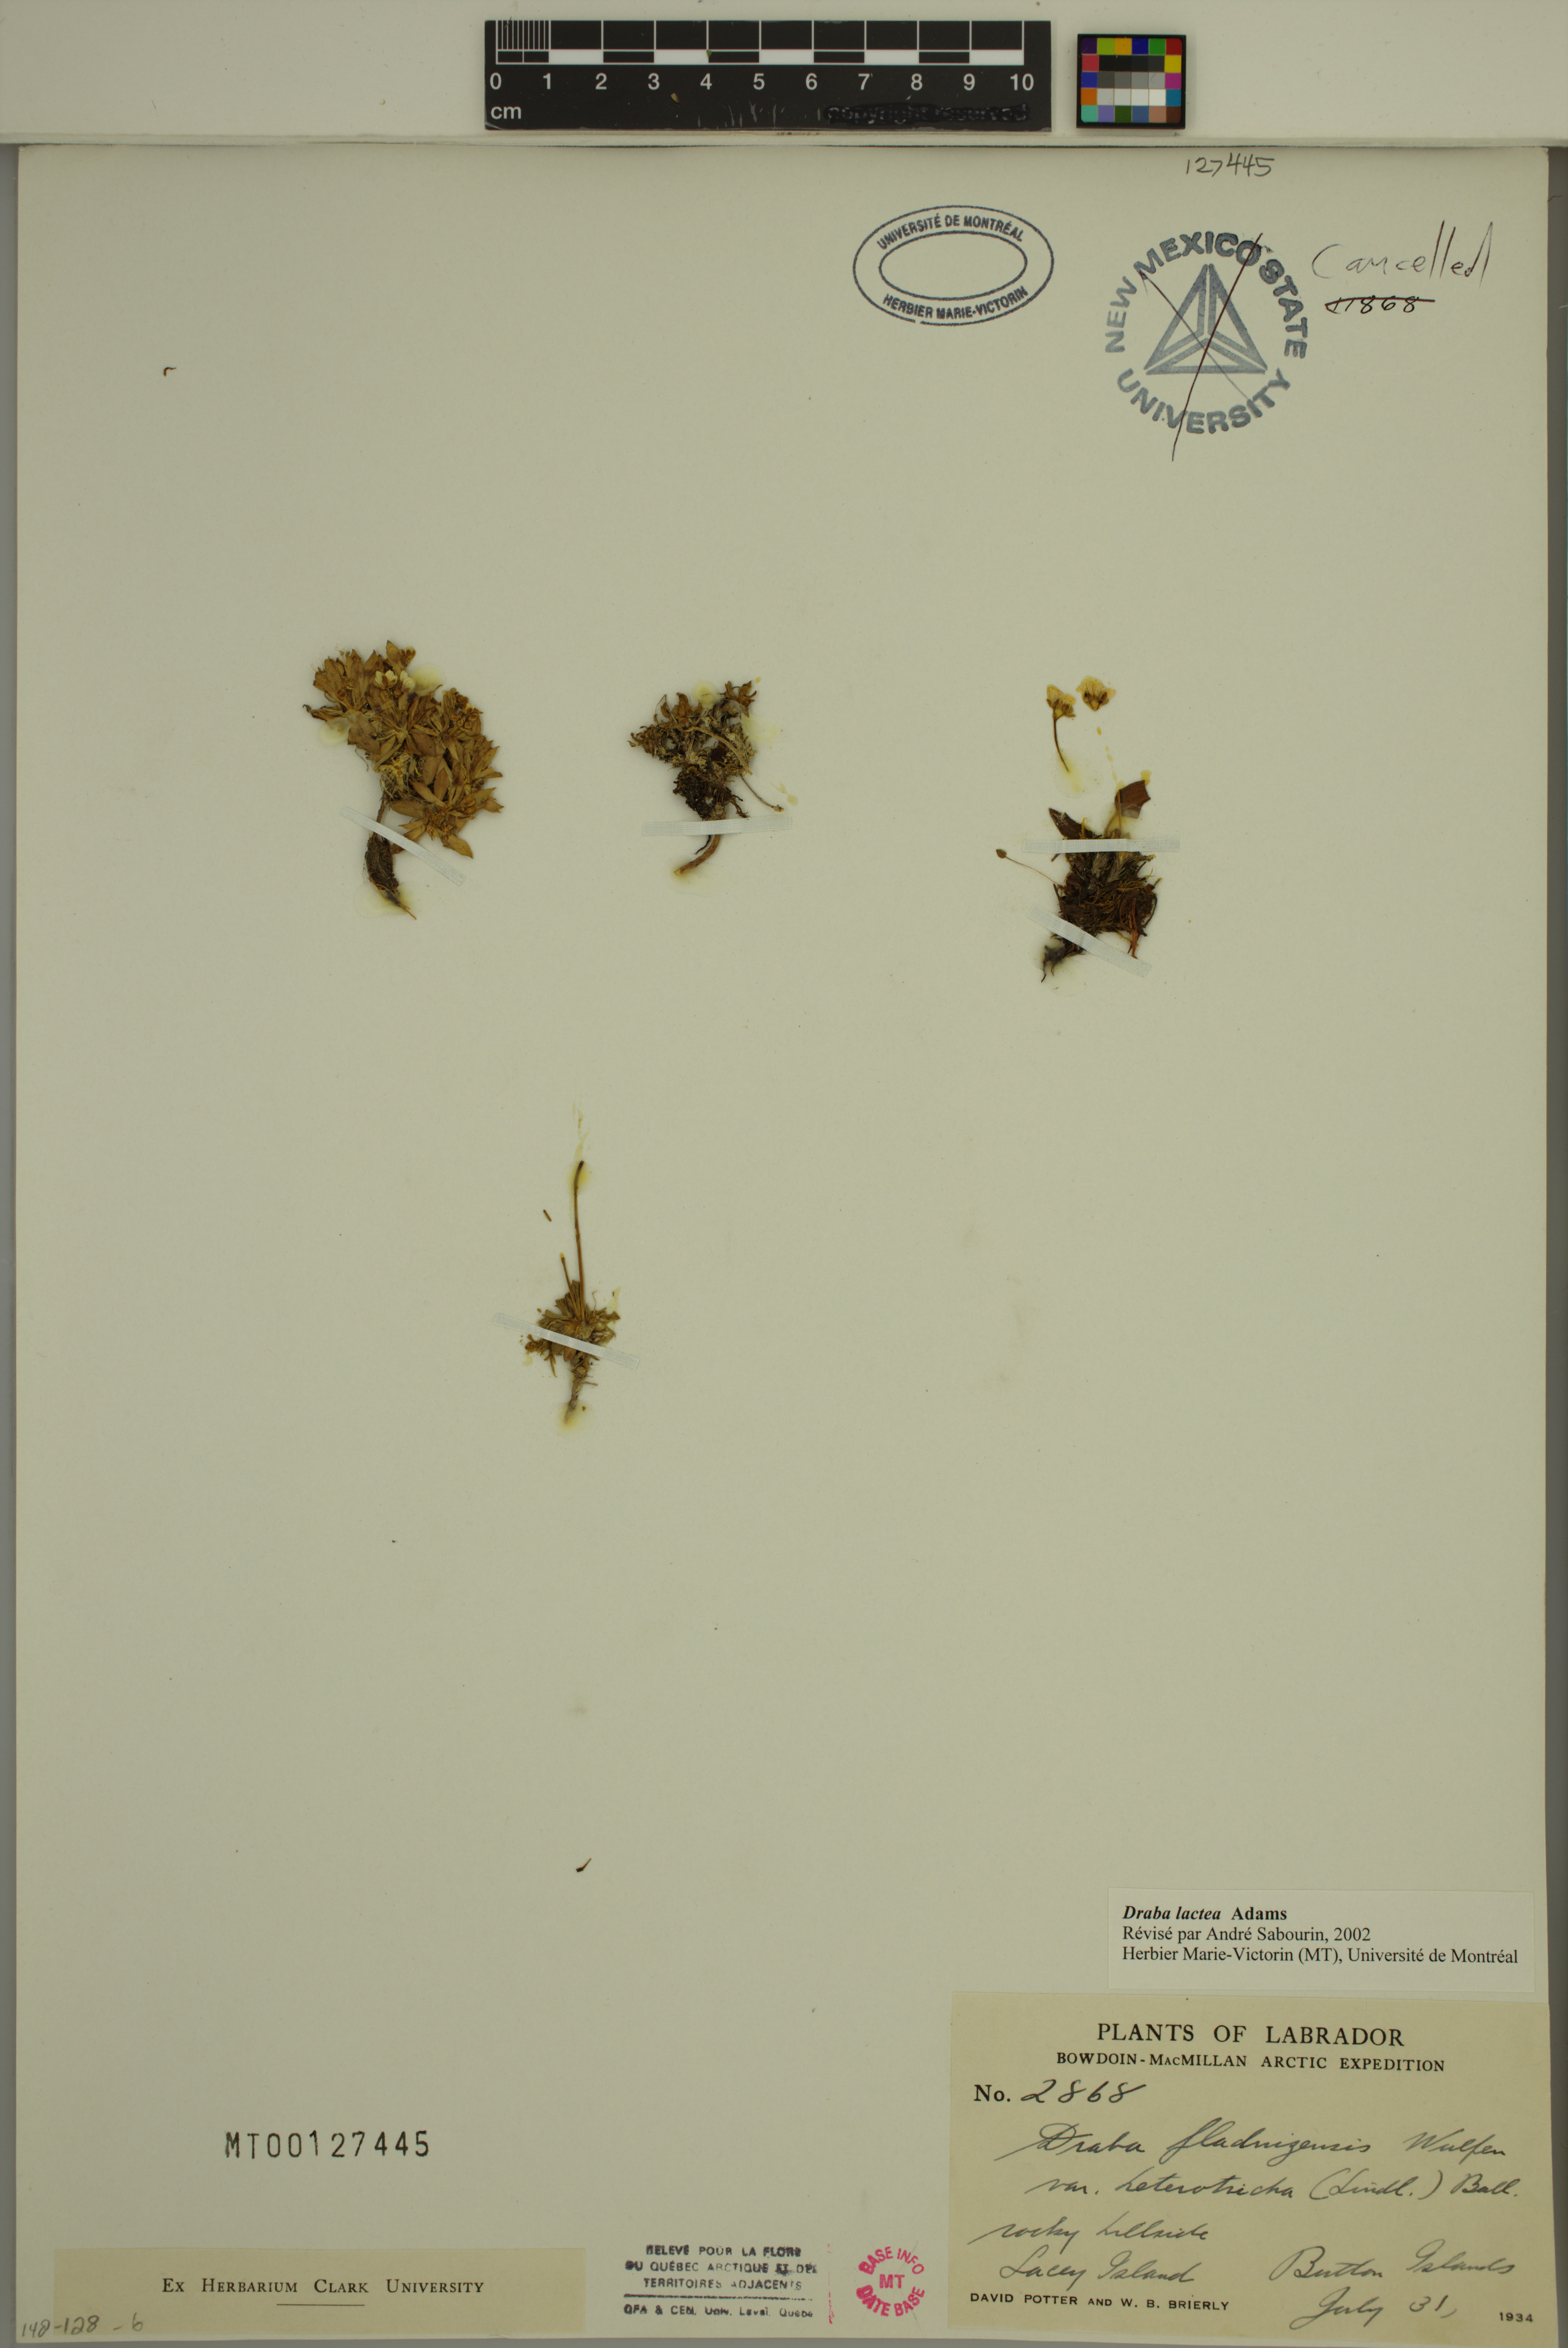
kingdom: Plantae
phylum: Tracheophyta
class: Magnoliopsida
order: Brassicales
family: Brassicaceae
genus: Draba
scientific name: Draba lactea
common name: Milky draba
